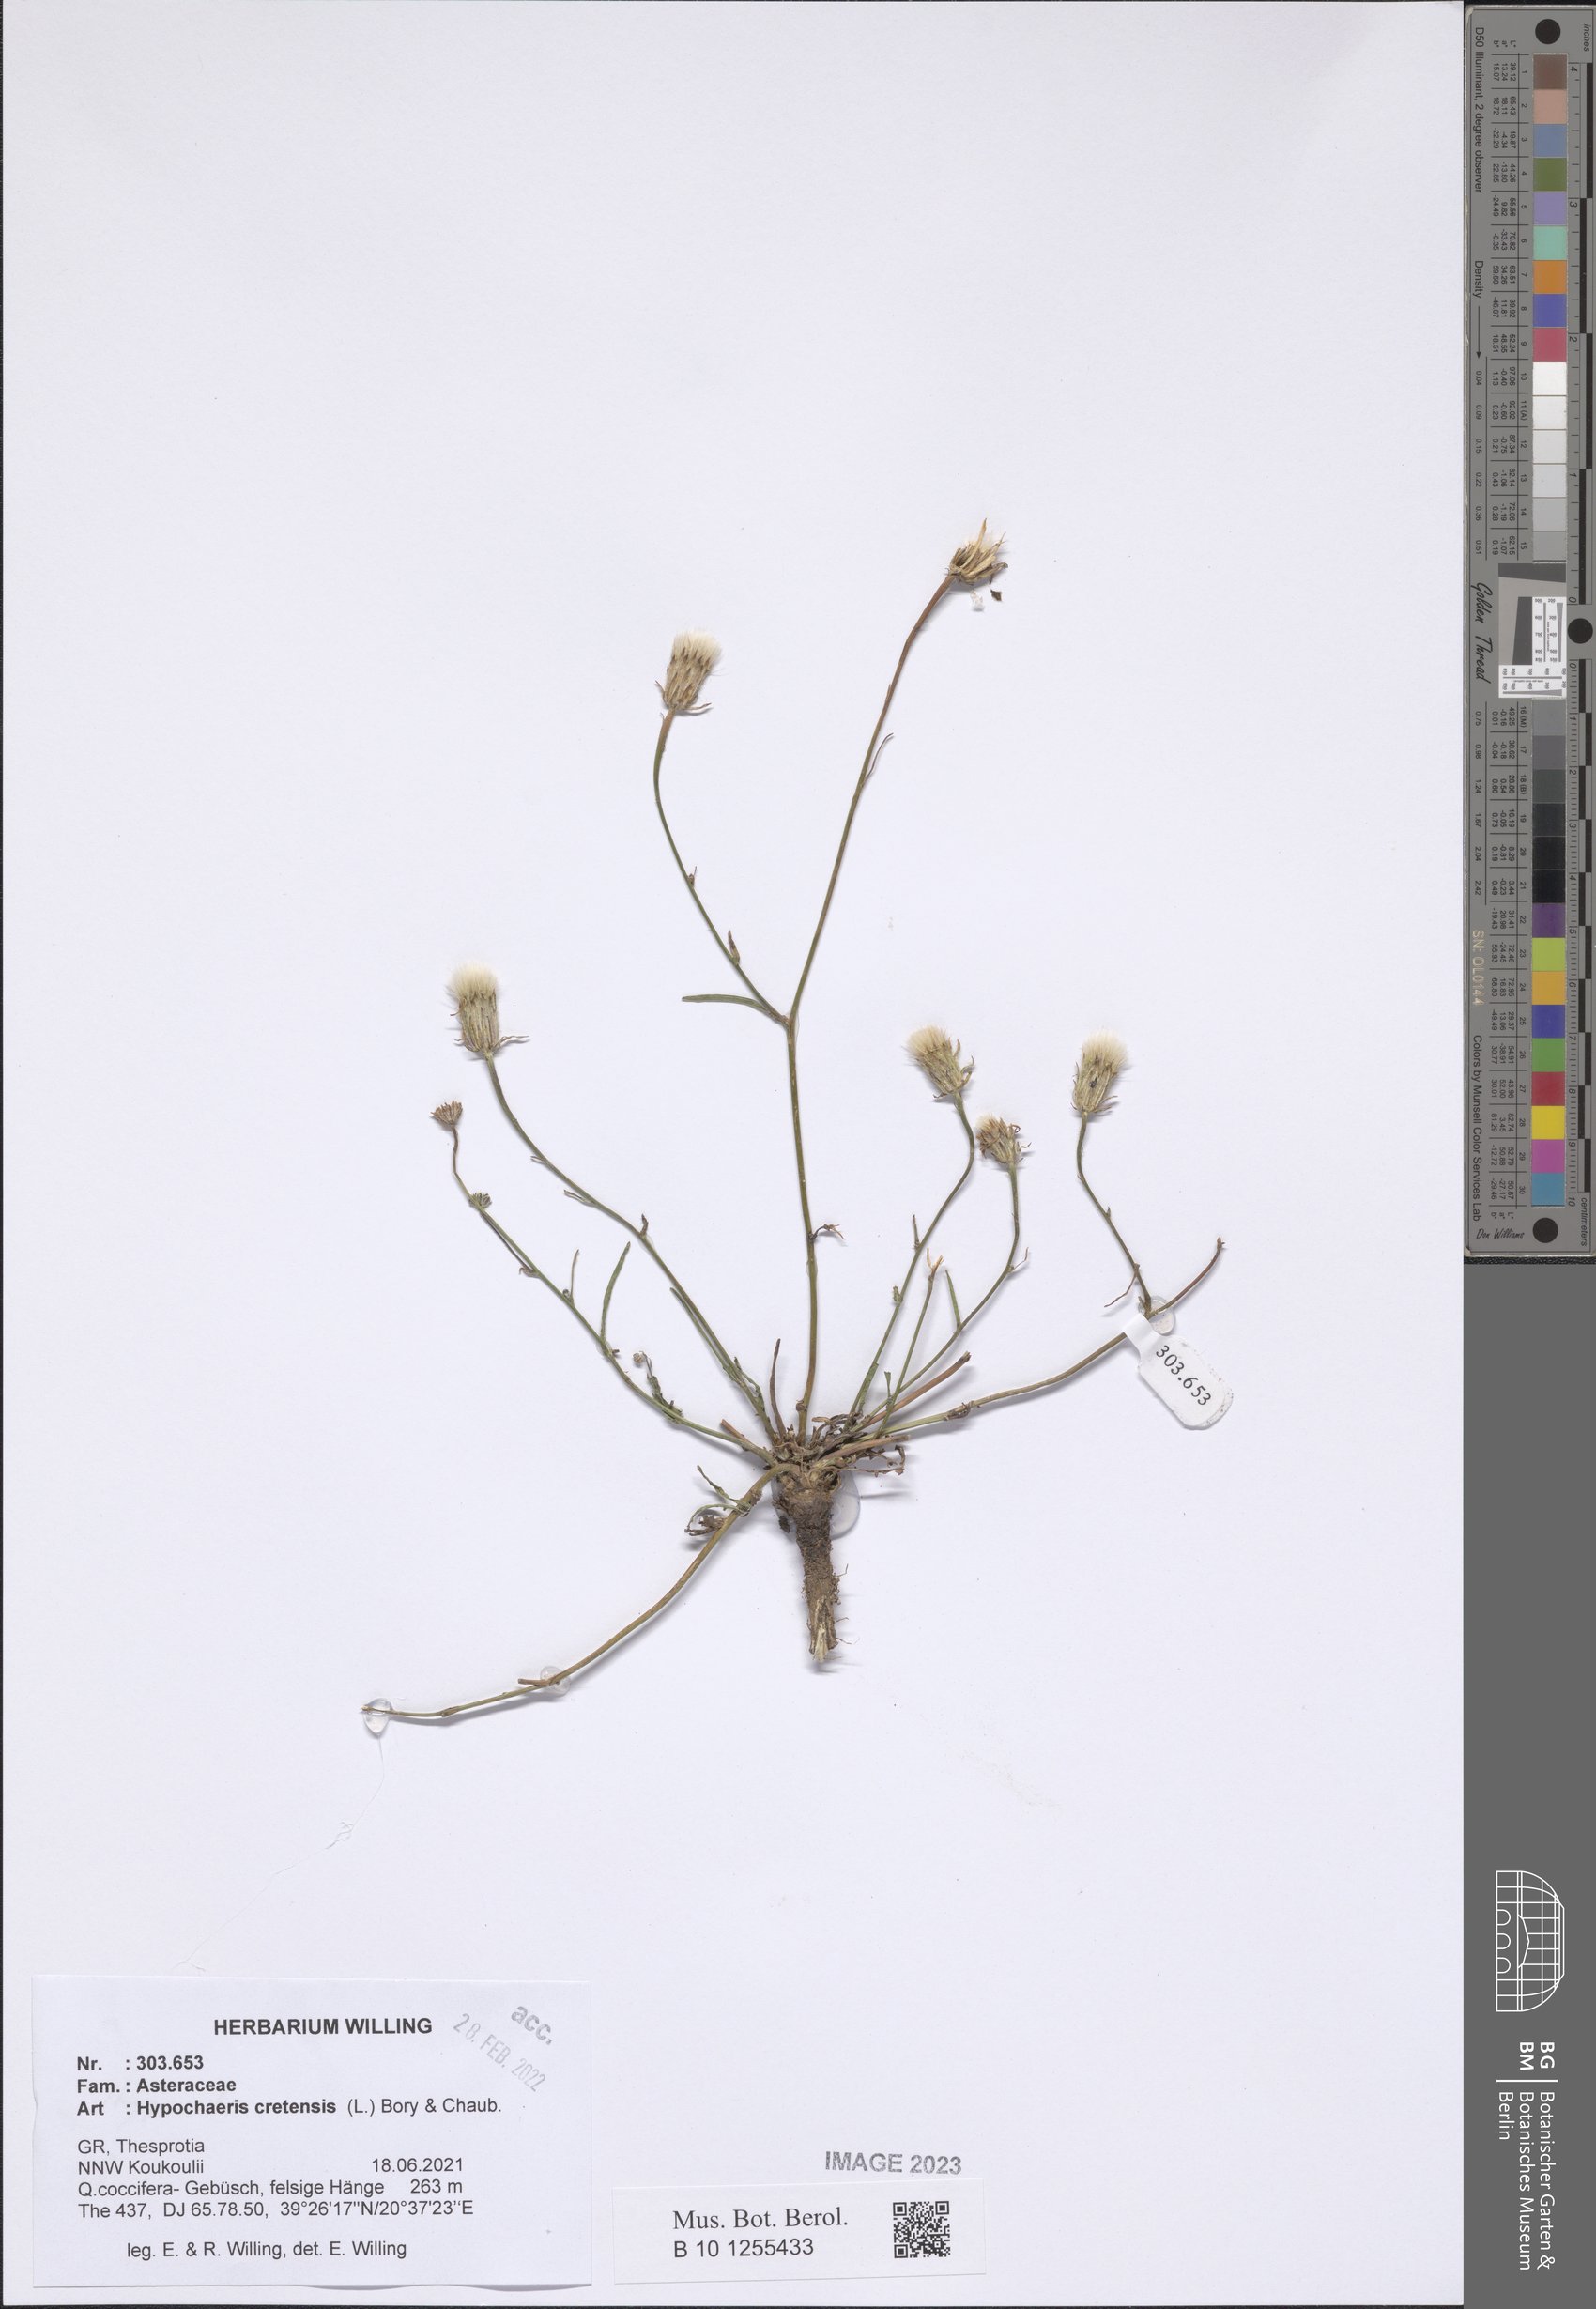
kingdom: Plantae
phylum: Tracheophyta
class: Magnoliopsida
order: Asterales
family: Asteraceae
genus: Hypochaeris
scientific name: Hypochaeris cretensis
